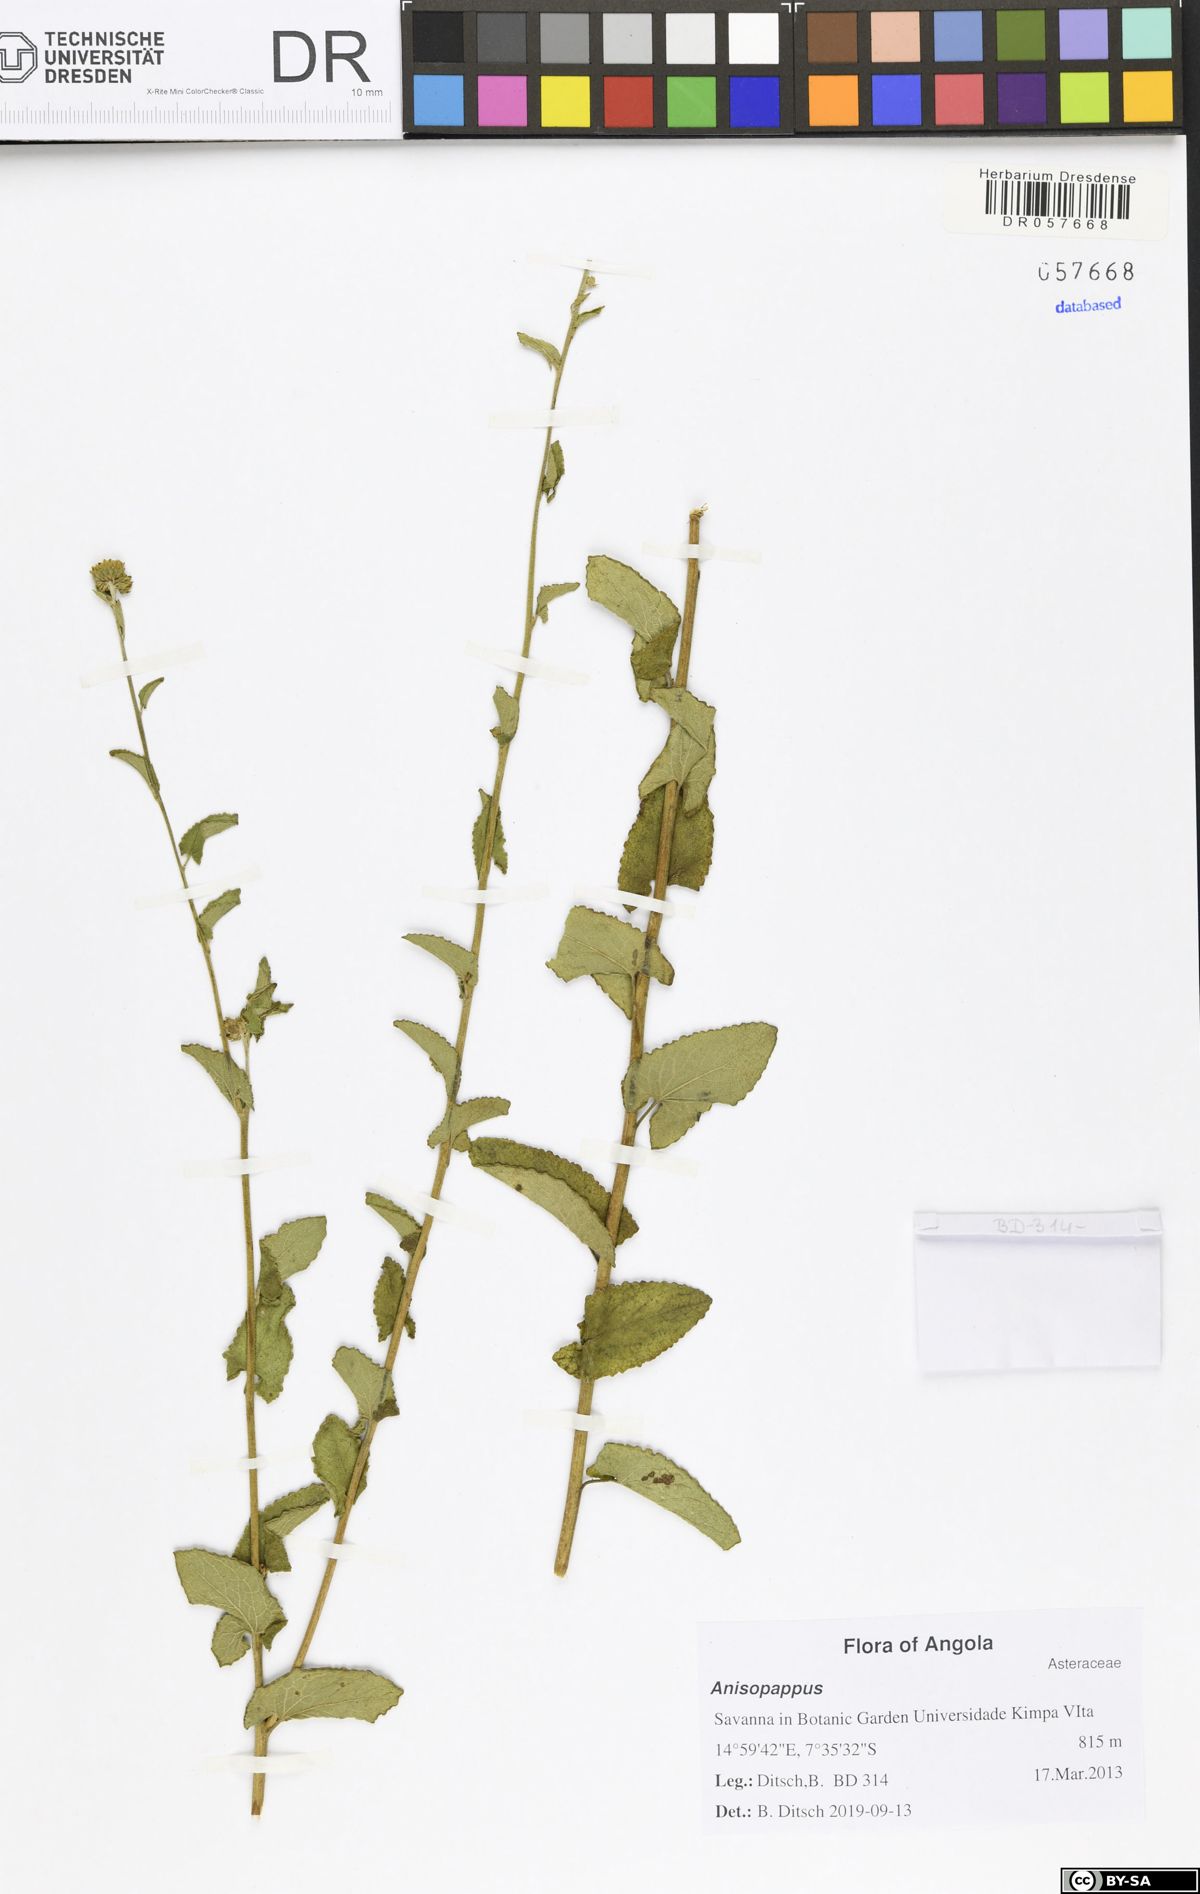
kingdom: Plantae
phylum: Tracheophyta
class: Magnoliopsida
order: Asterales
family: Asteraceae
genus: Anisopappus
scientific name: Anisopappus buchwaldii
